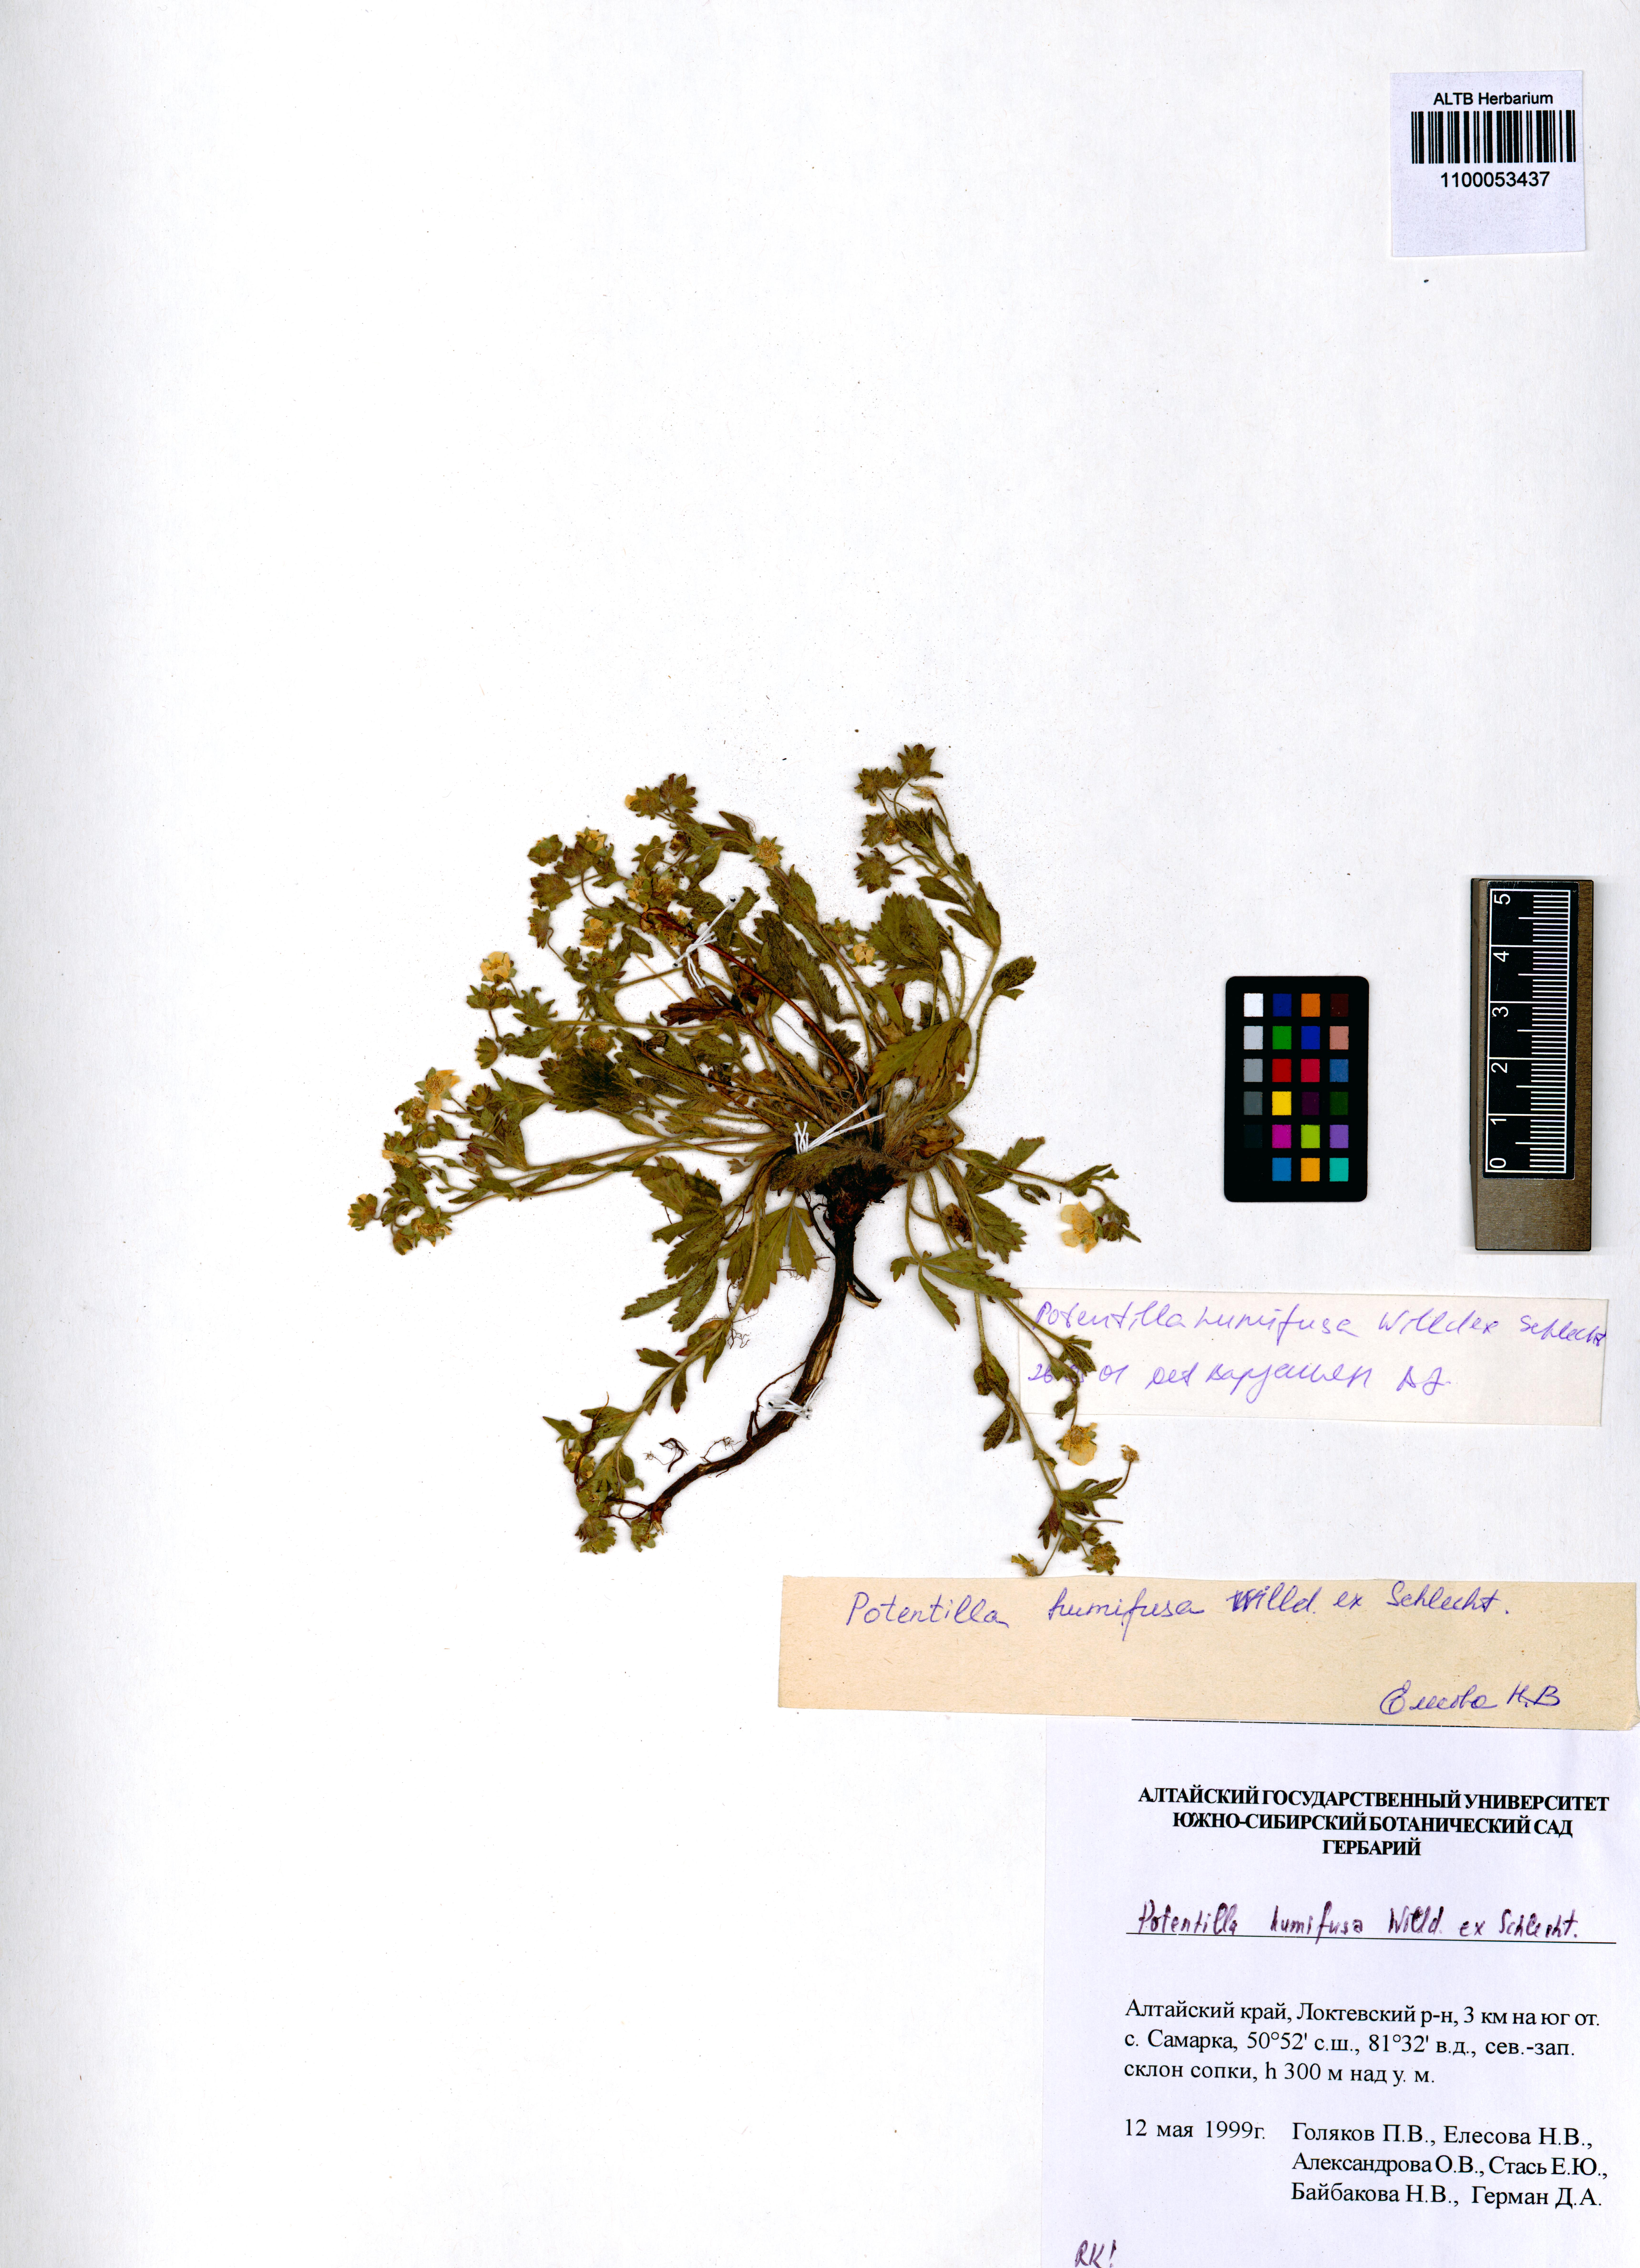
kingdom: Plantae
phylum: Tracheophyta
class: Magnoliopsida
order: Rosales
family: Rosaceae
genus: Potentilla
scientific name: Potentilla humifusa
